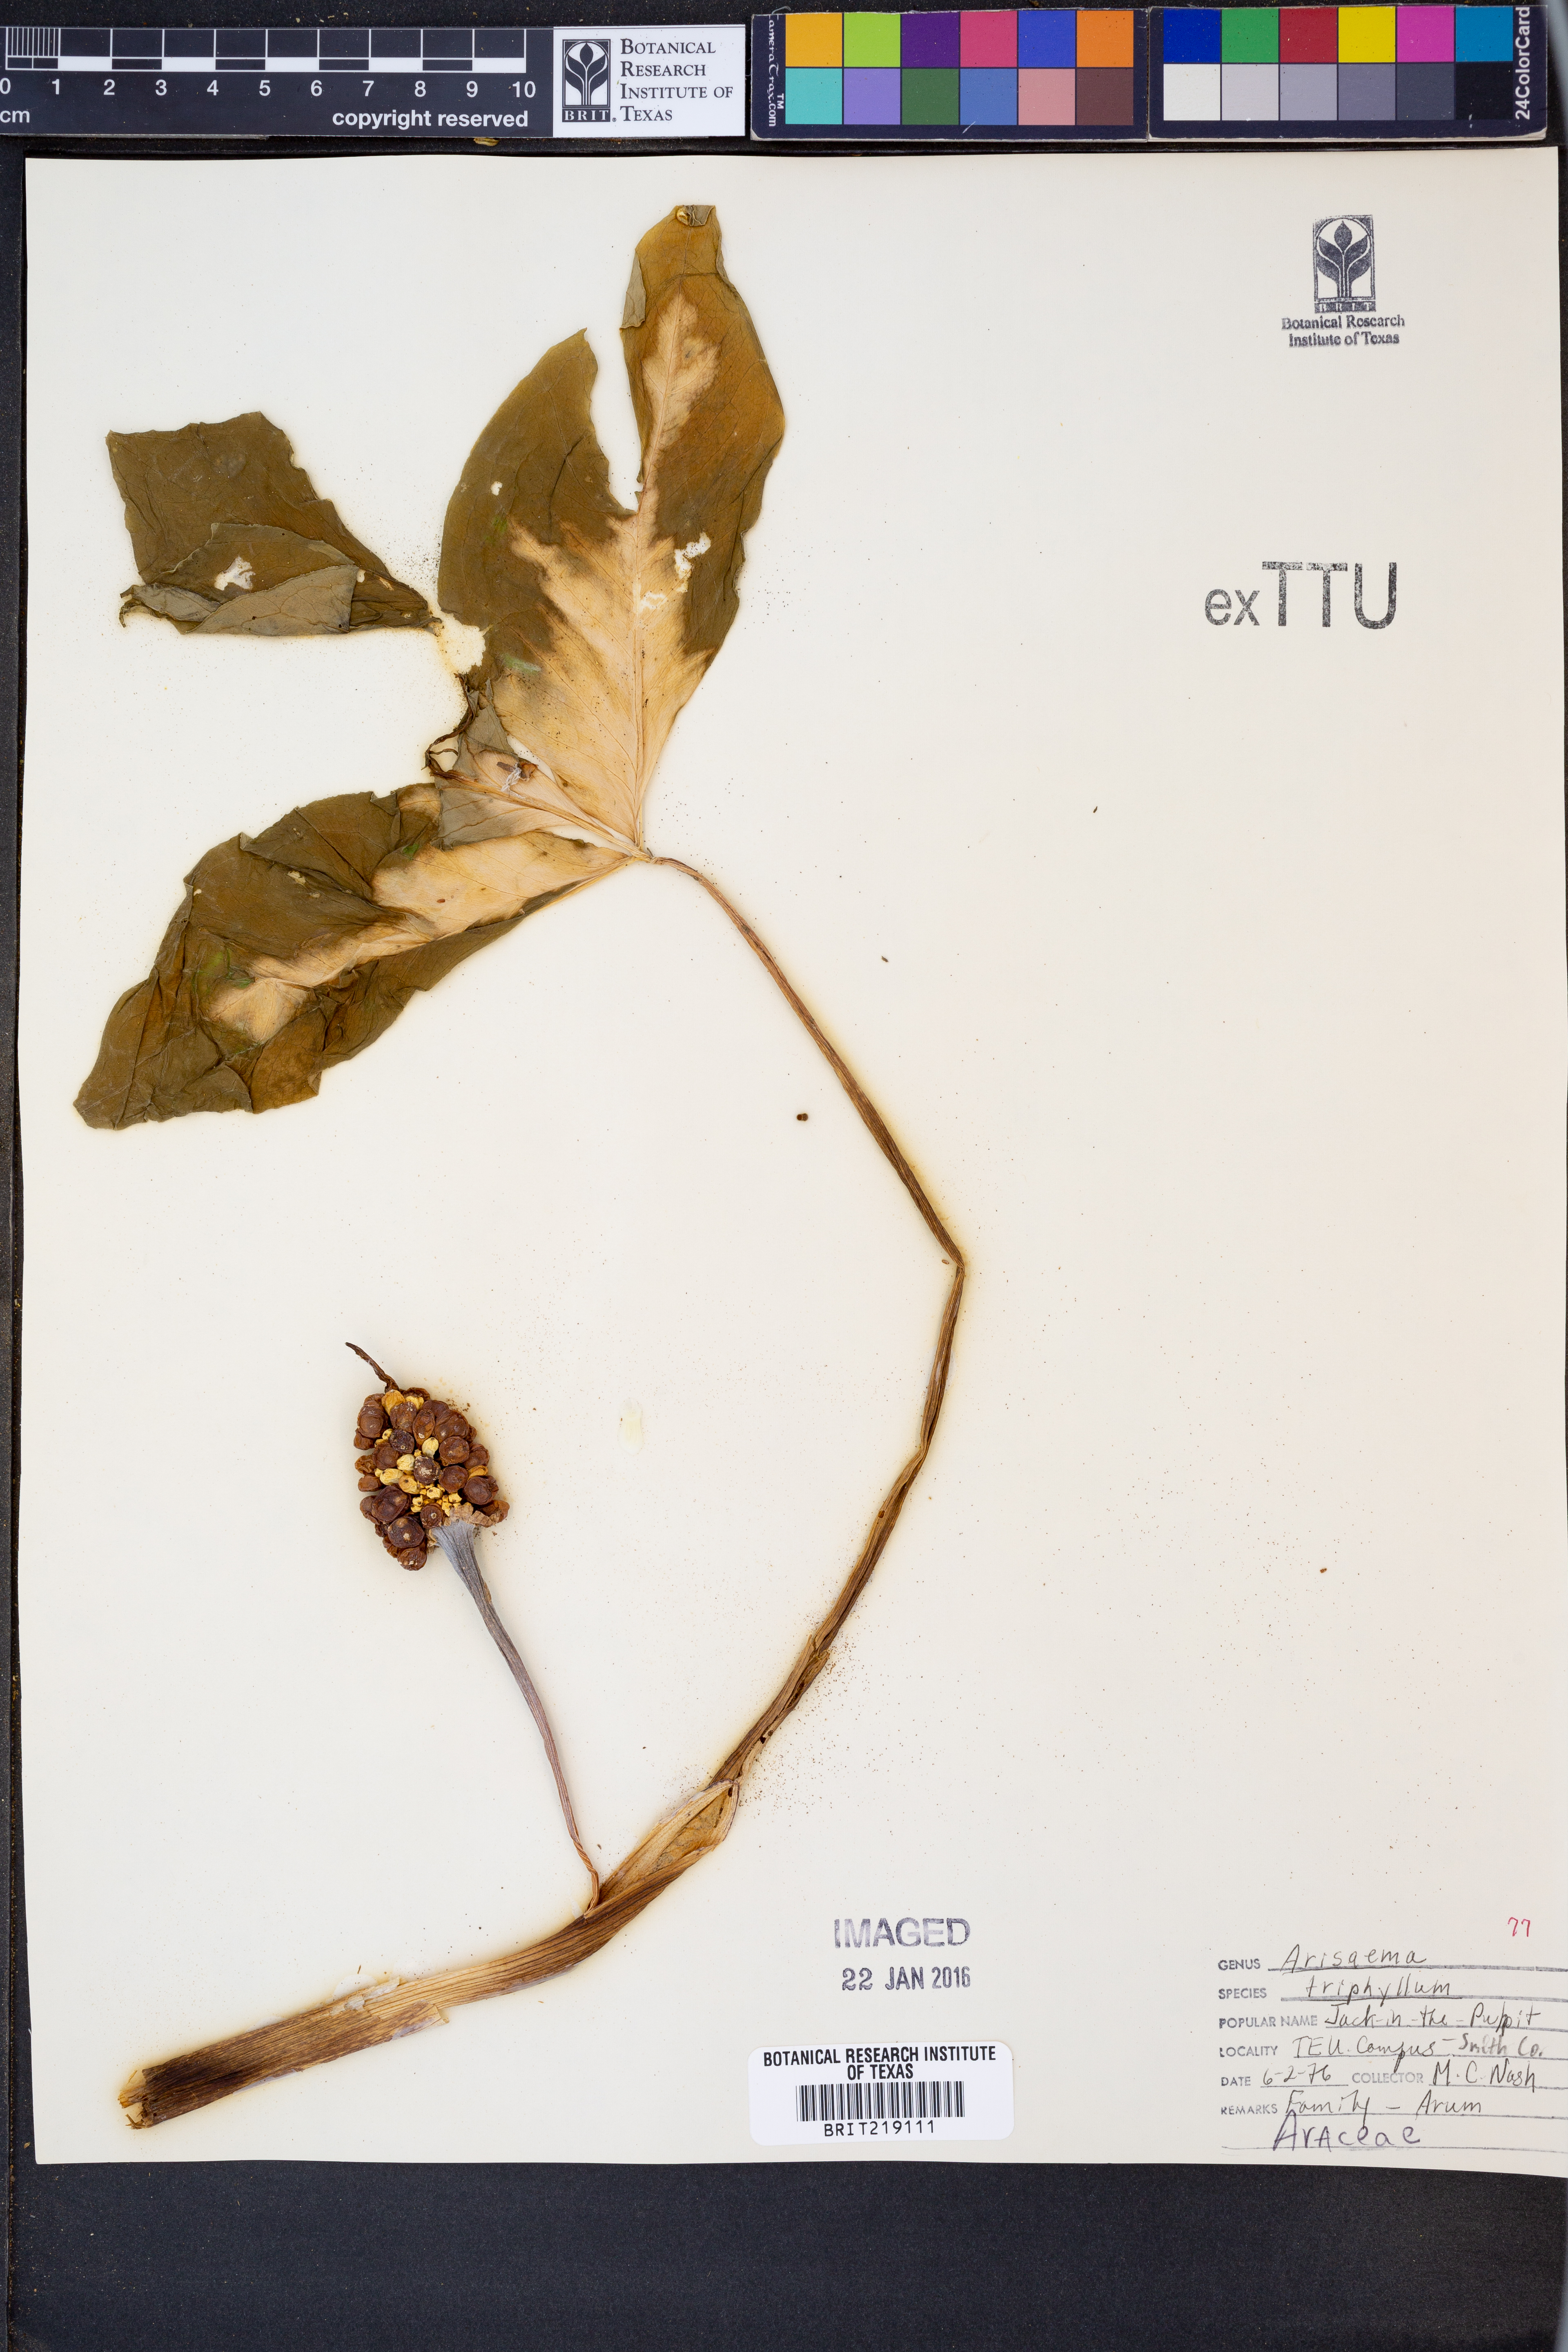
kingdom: Plantae
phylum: Tracheophyta
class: Liliopsida
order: Alismatales
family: Araceae
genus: Arisaema
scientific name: Arisaema triphyllum
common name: Jack-in-the-pulpit
